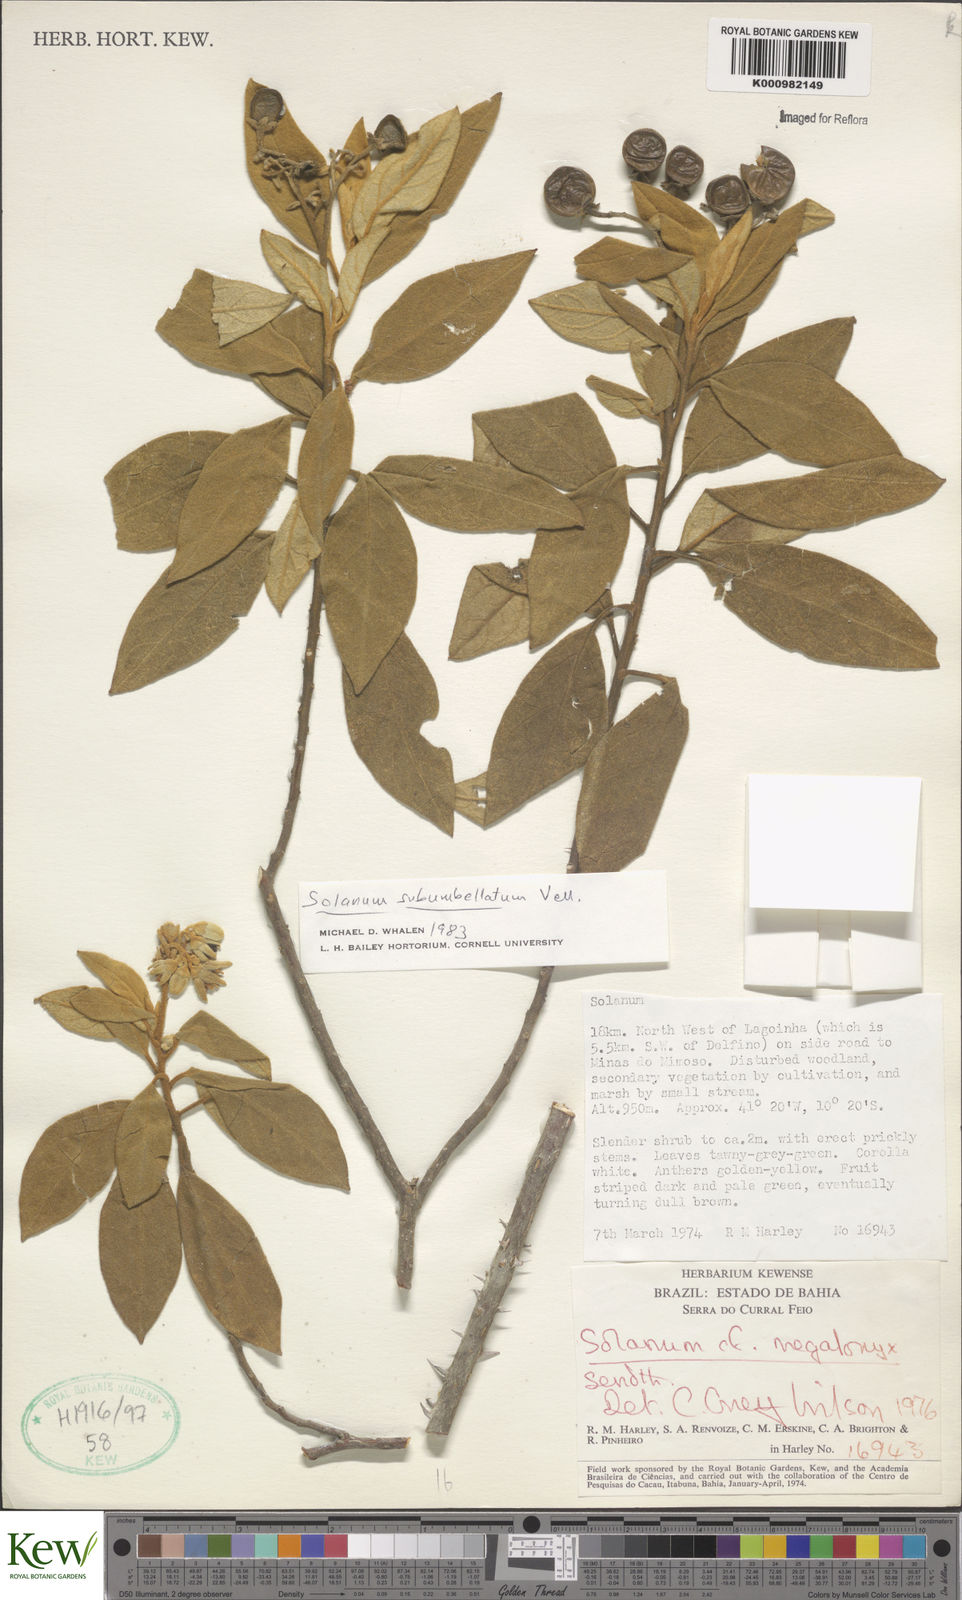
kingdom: Plantae
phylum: Tracheophyta
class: Magnoliopsida
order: Solanales
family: Solanaceae
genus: Solanum
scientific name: Solanum subumbellatum
